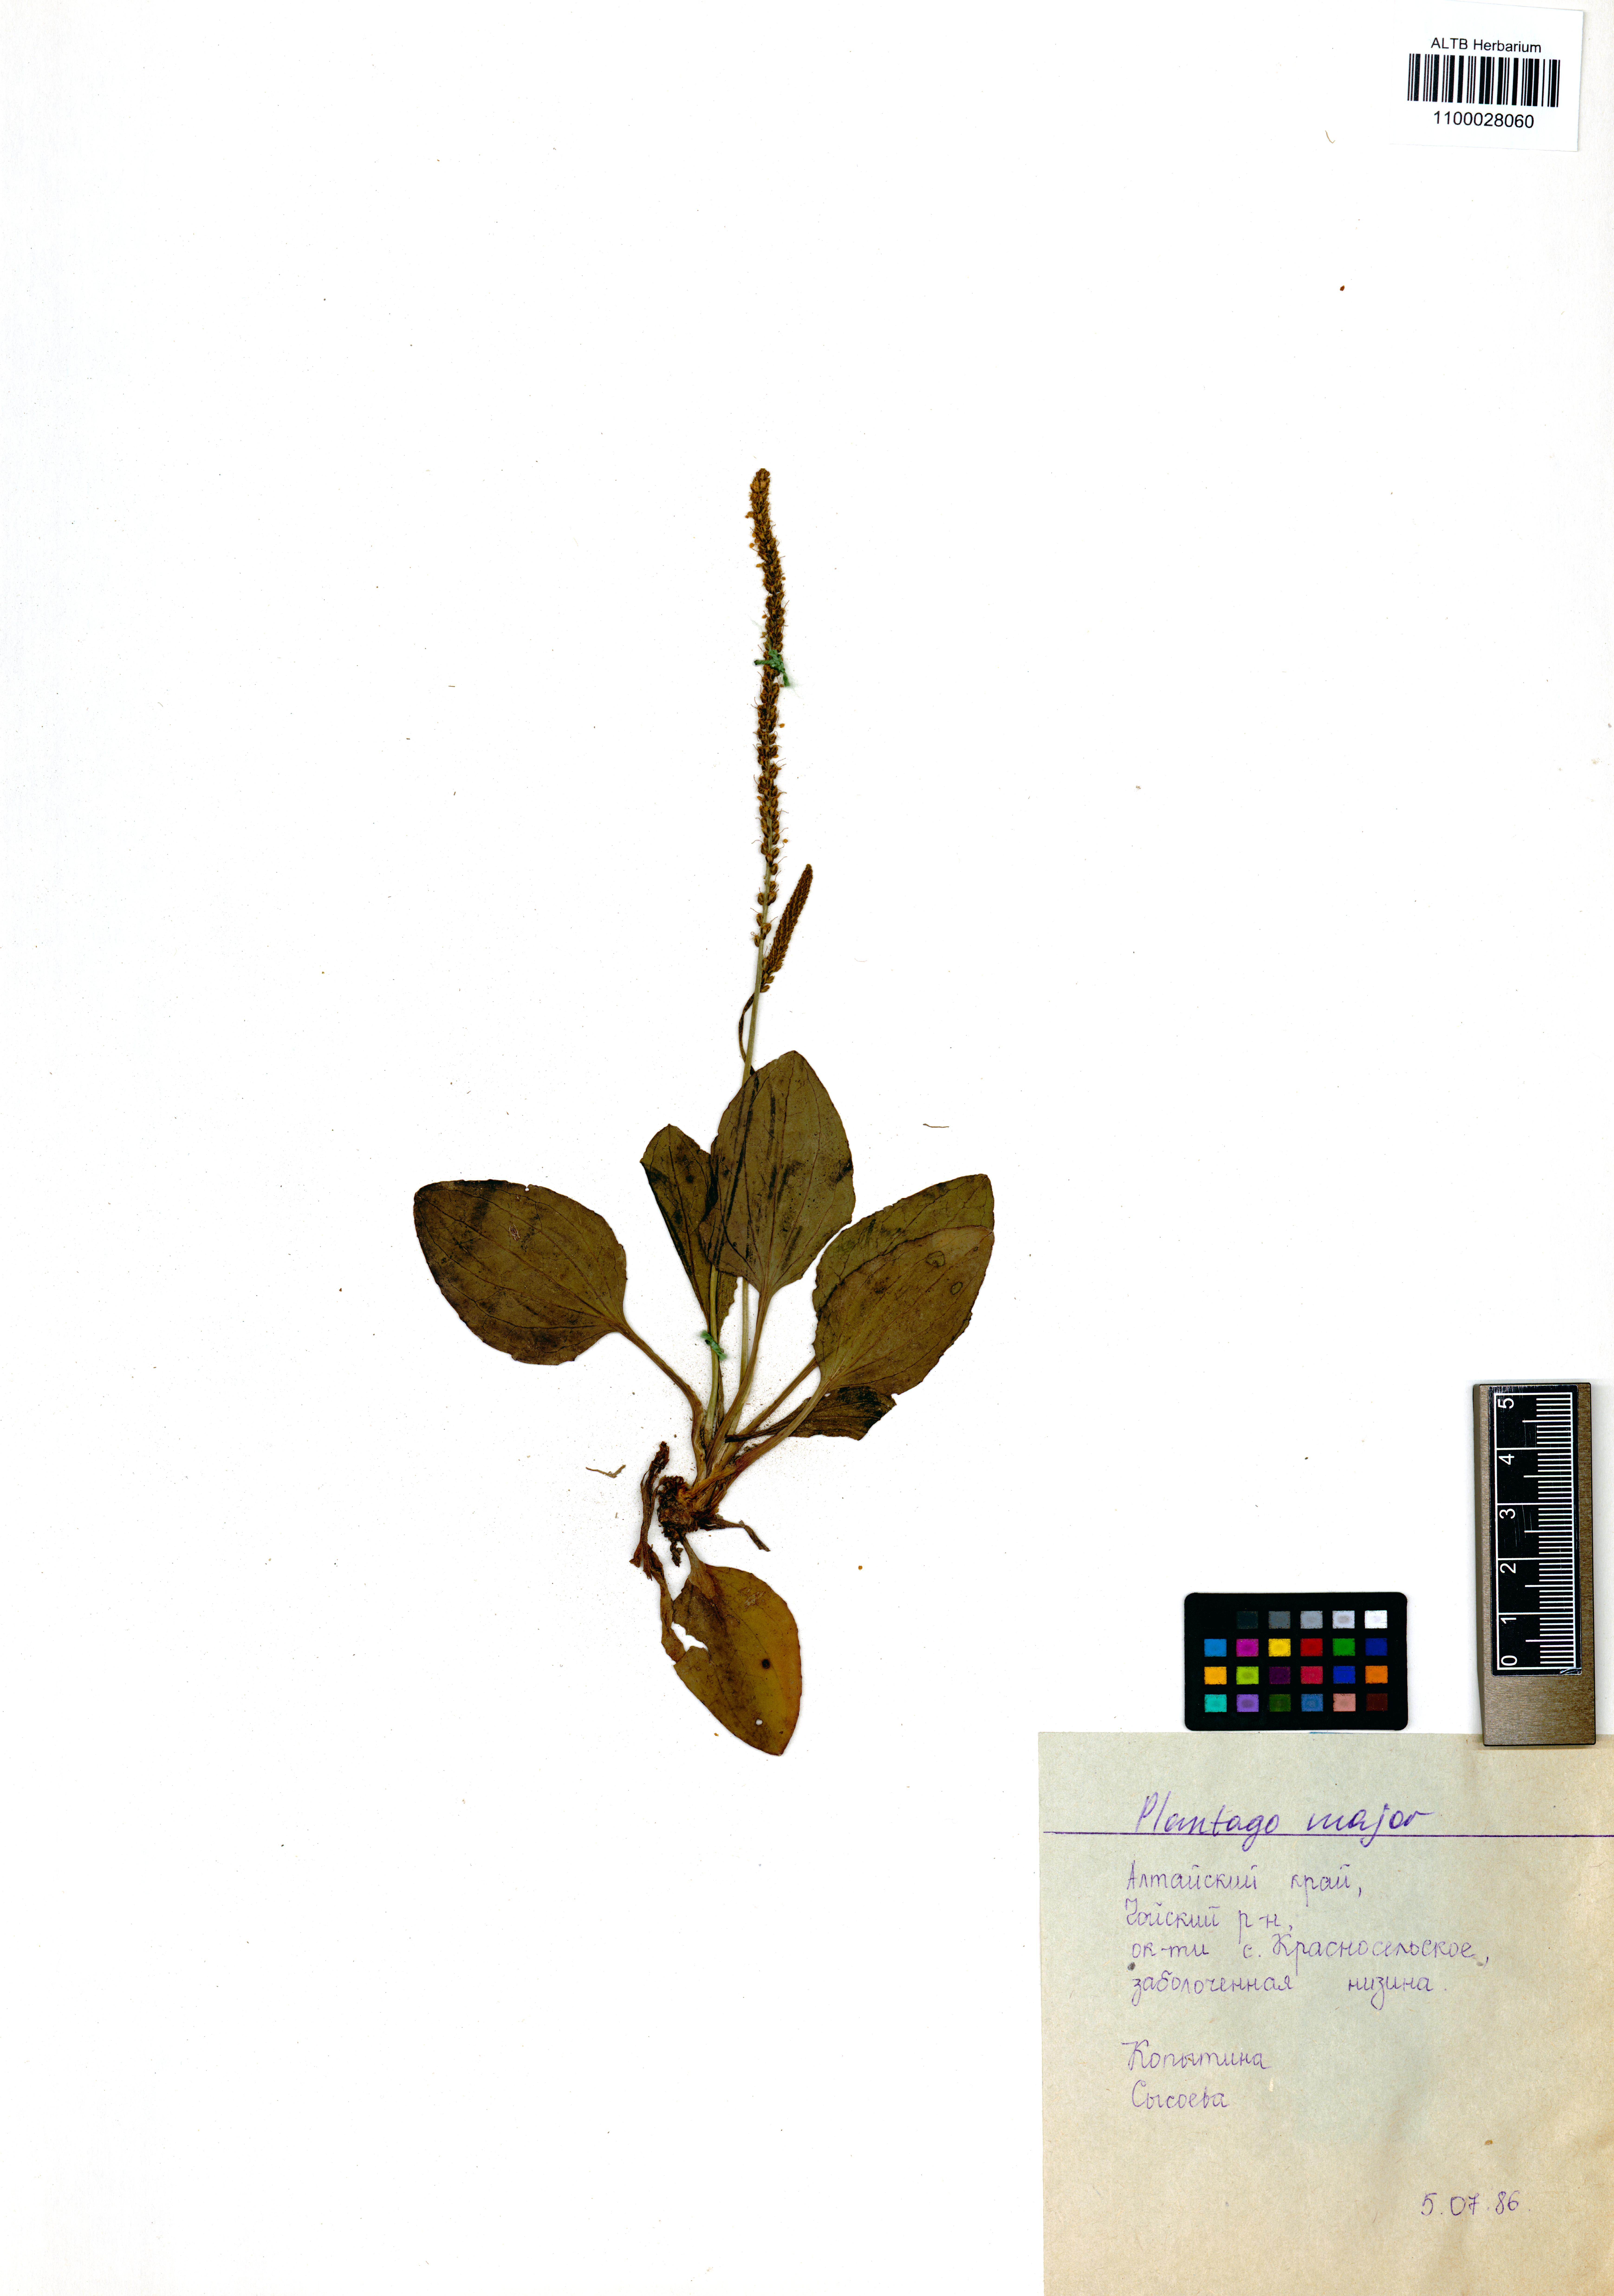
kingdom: Plantae
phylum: Tracheophyta
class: Magnoliopsida
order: Lamiales
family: Plantaginaceae
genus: Plantago
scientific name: Plantago major
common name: Common plantain
